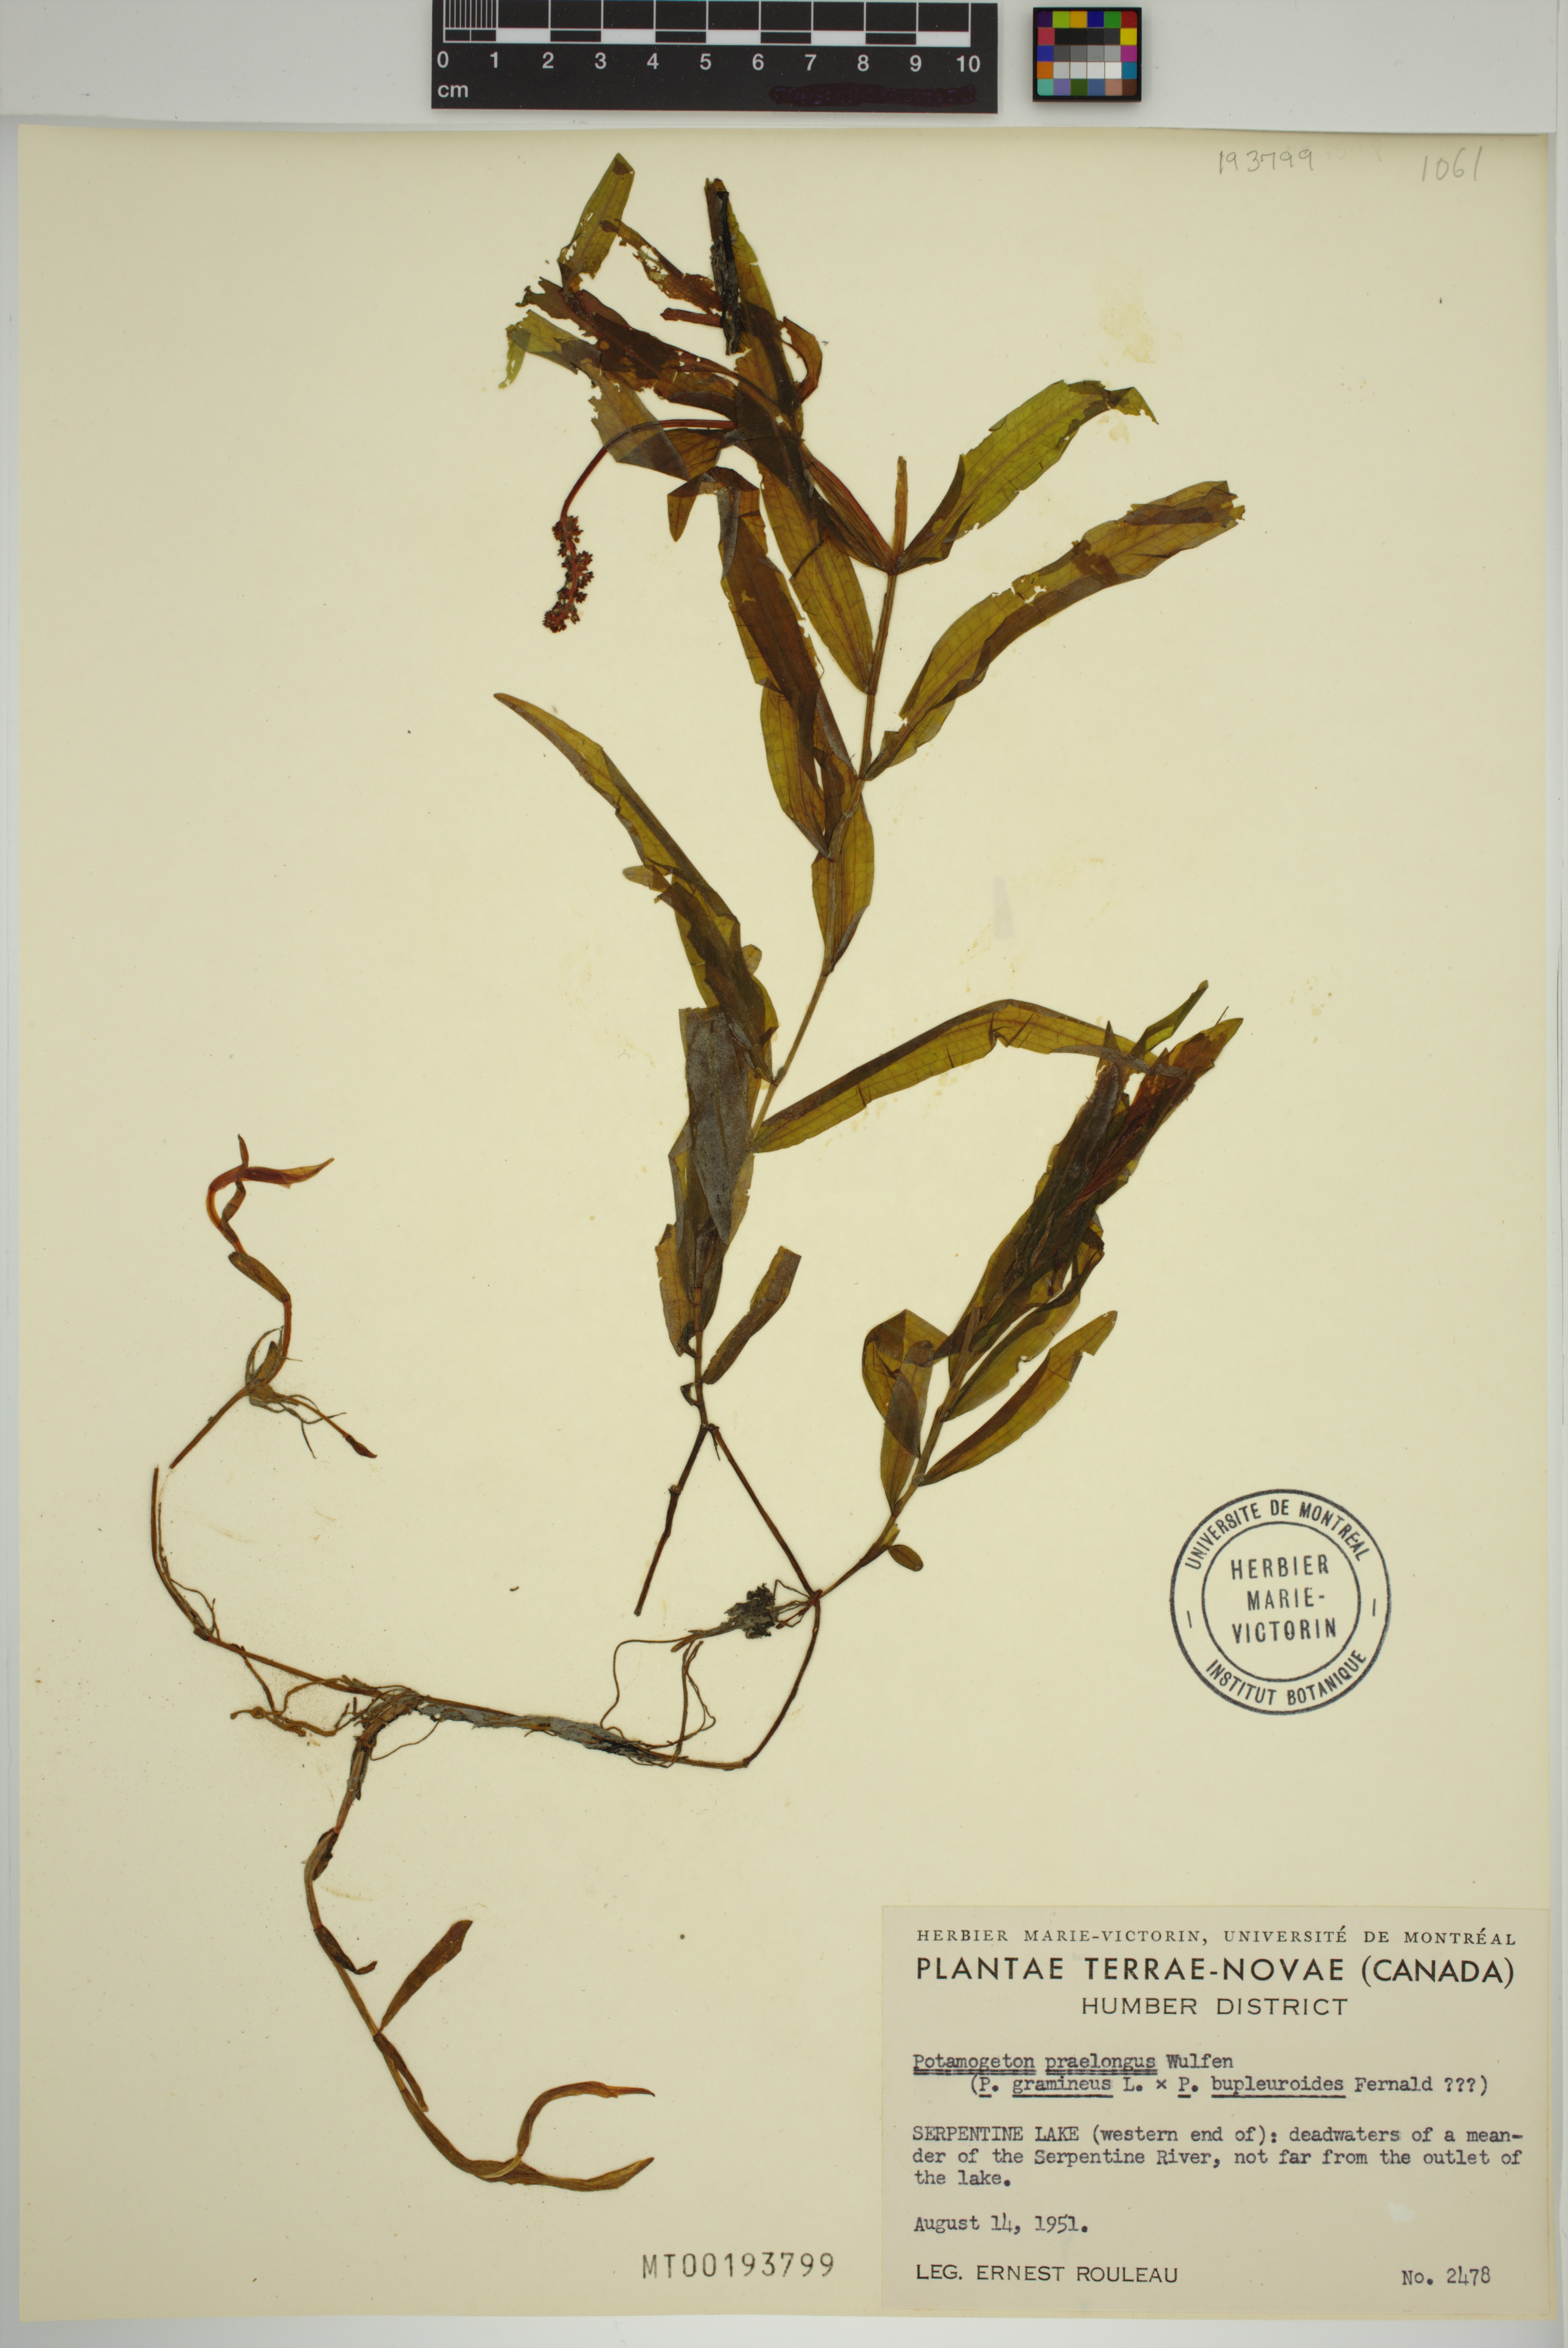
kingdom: Plantae
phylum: Tracheophyta
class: Liliopsida
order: Alismatales
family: Potamogetonaceae
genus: Potamogeton
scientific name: Potamogeton praelongus
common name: Long-stalked pondweed
